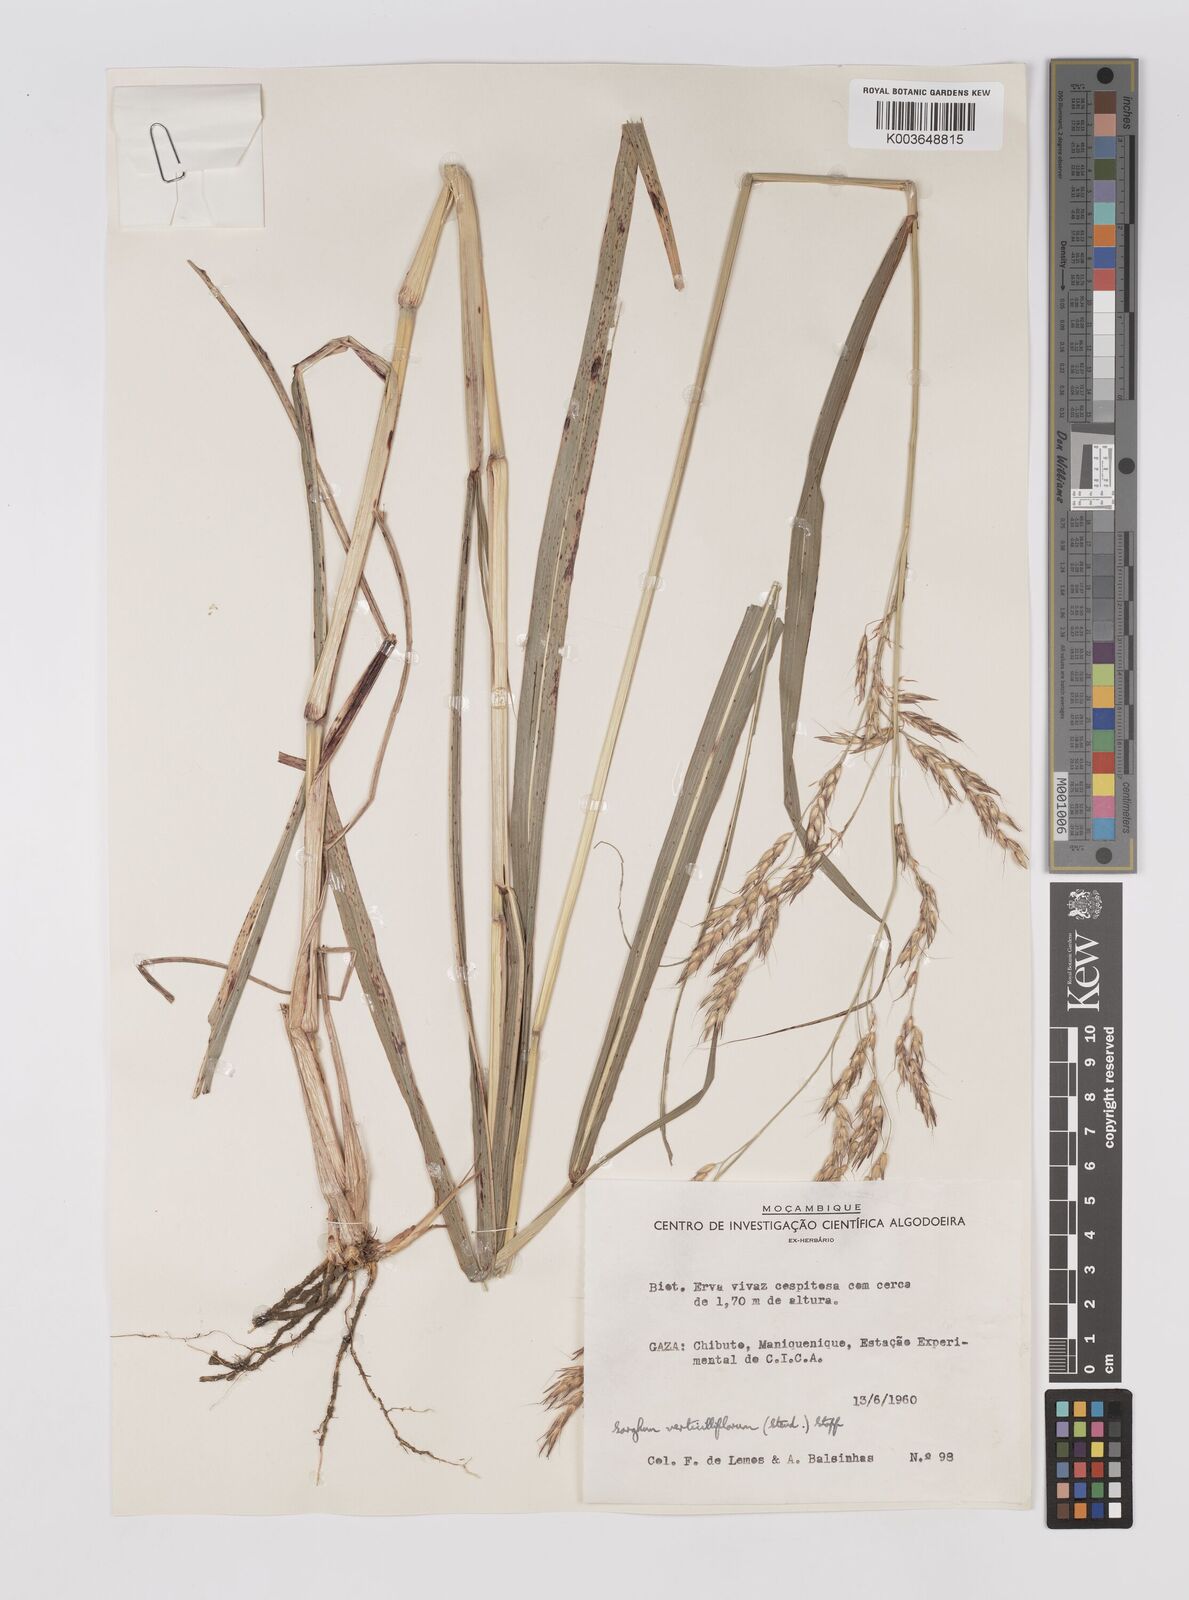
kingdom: Plantae
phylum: Tracheophyta
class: Liliopsida
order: Poales
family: Poaceae
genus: Sorghum
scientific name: Sorghum arundinaceum
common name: Sorghum
